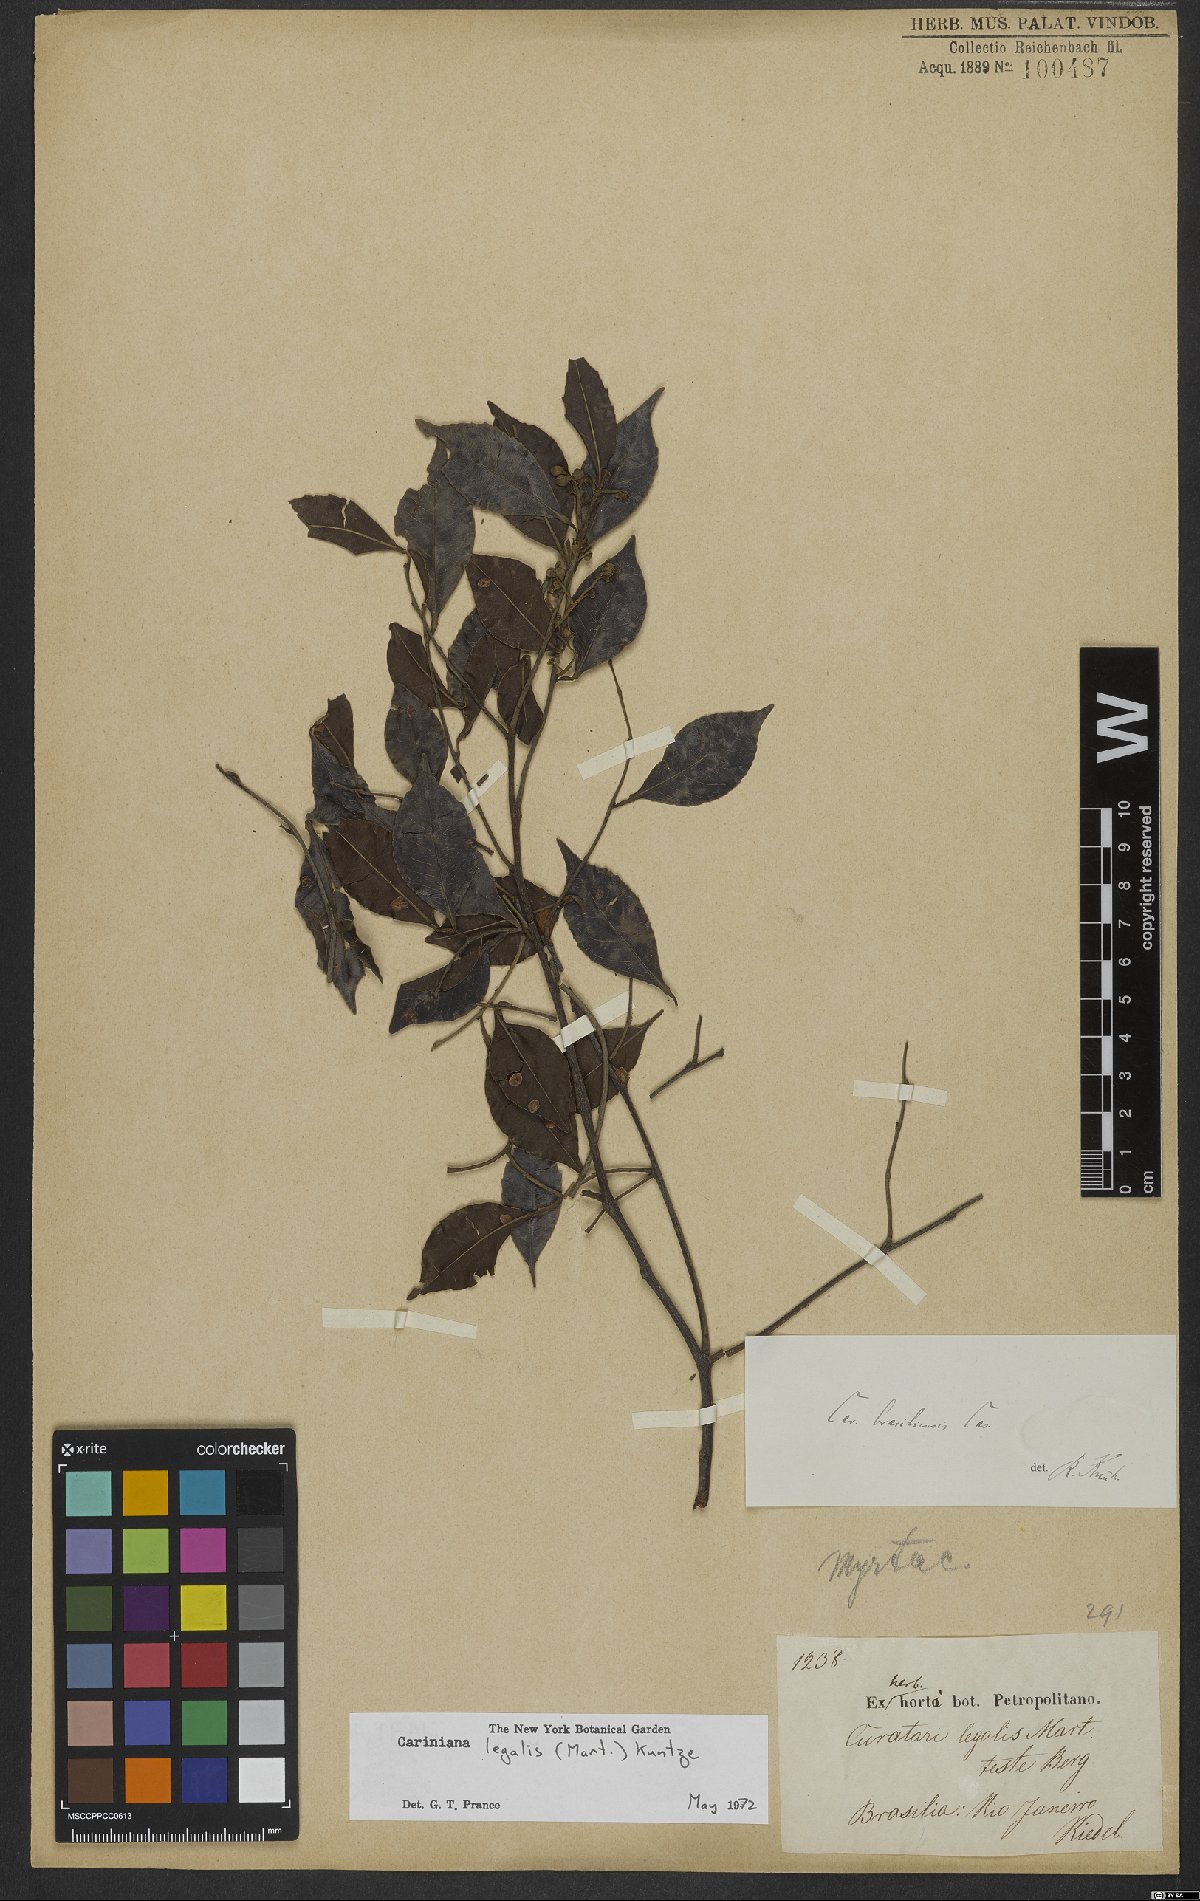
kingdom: Plantae
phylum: Tracheophyta
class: Magnoliopsida
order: Ericales
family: Lecythidaceae
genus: Cariniana
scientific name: Cariniana legalis
